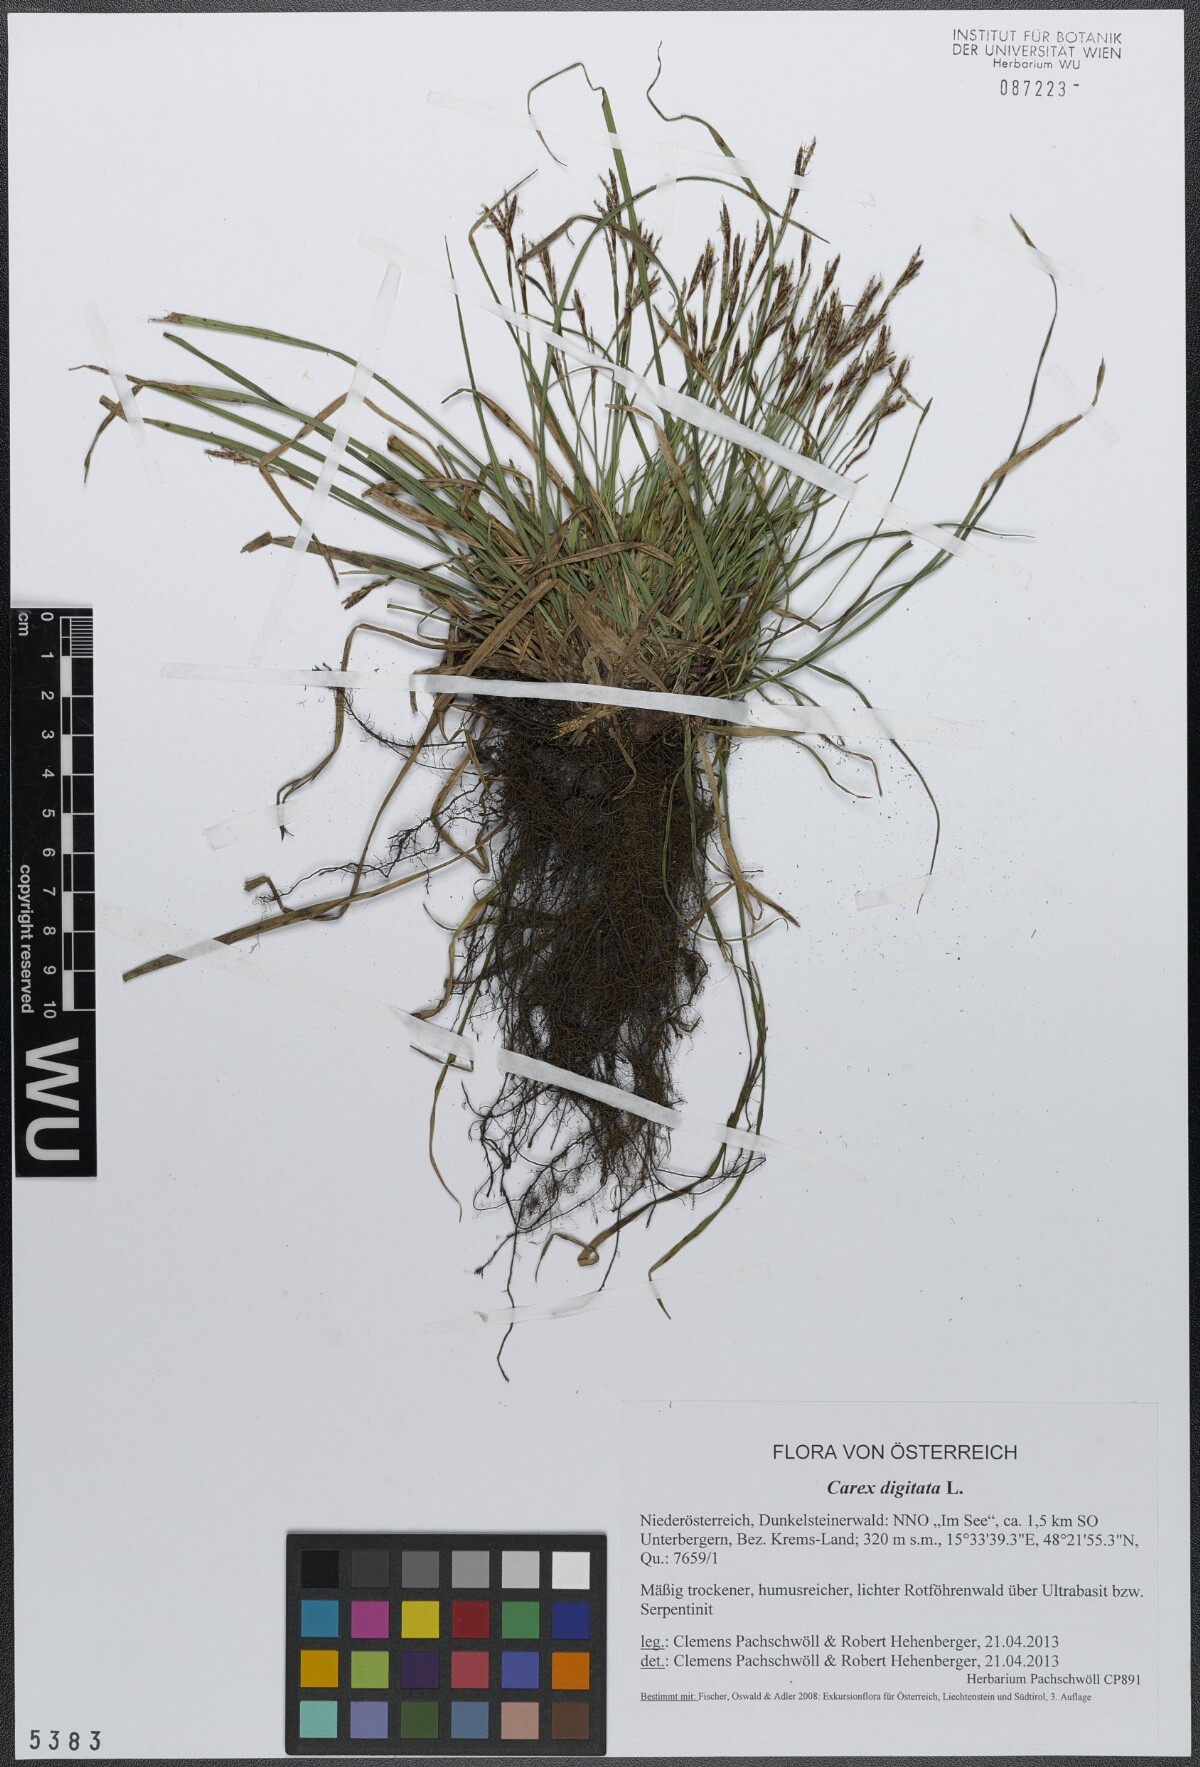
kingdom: Plantae
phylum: Tracheophyta
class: Liliopsida
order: Poales
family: Cyperaceae
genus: Carex
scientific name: Carex digitata
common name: Fingered sedge
